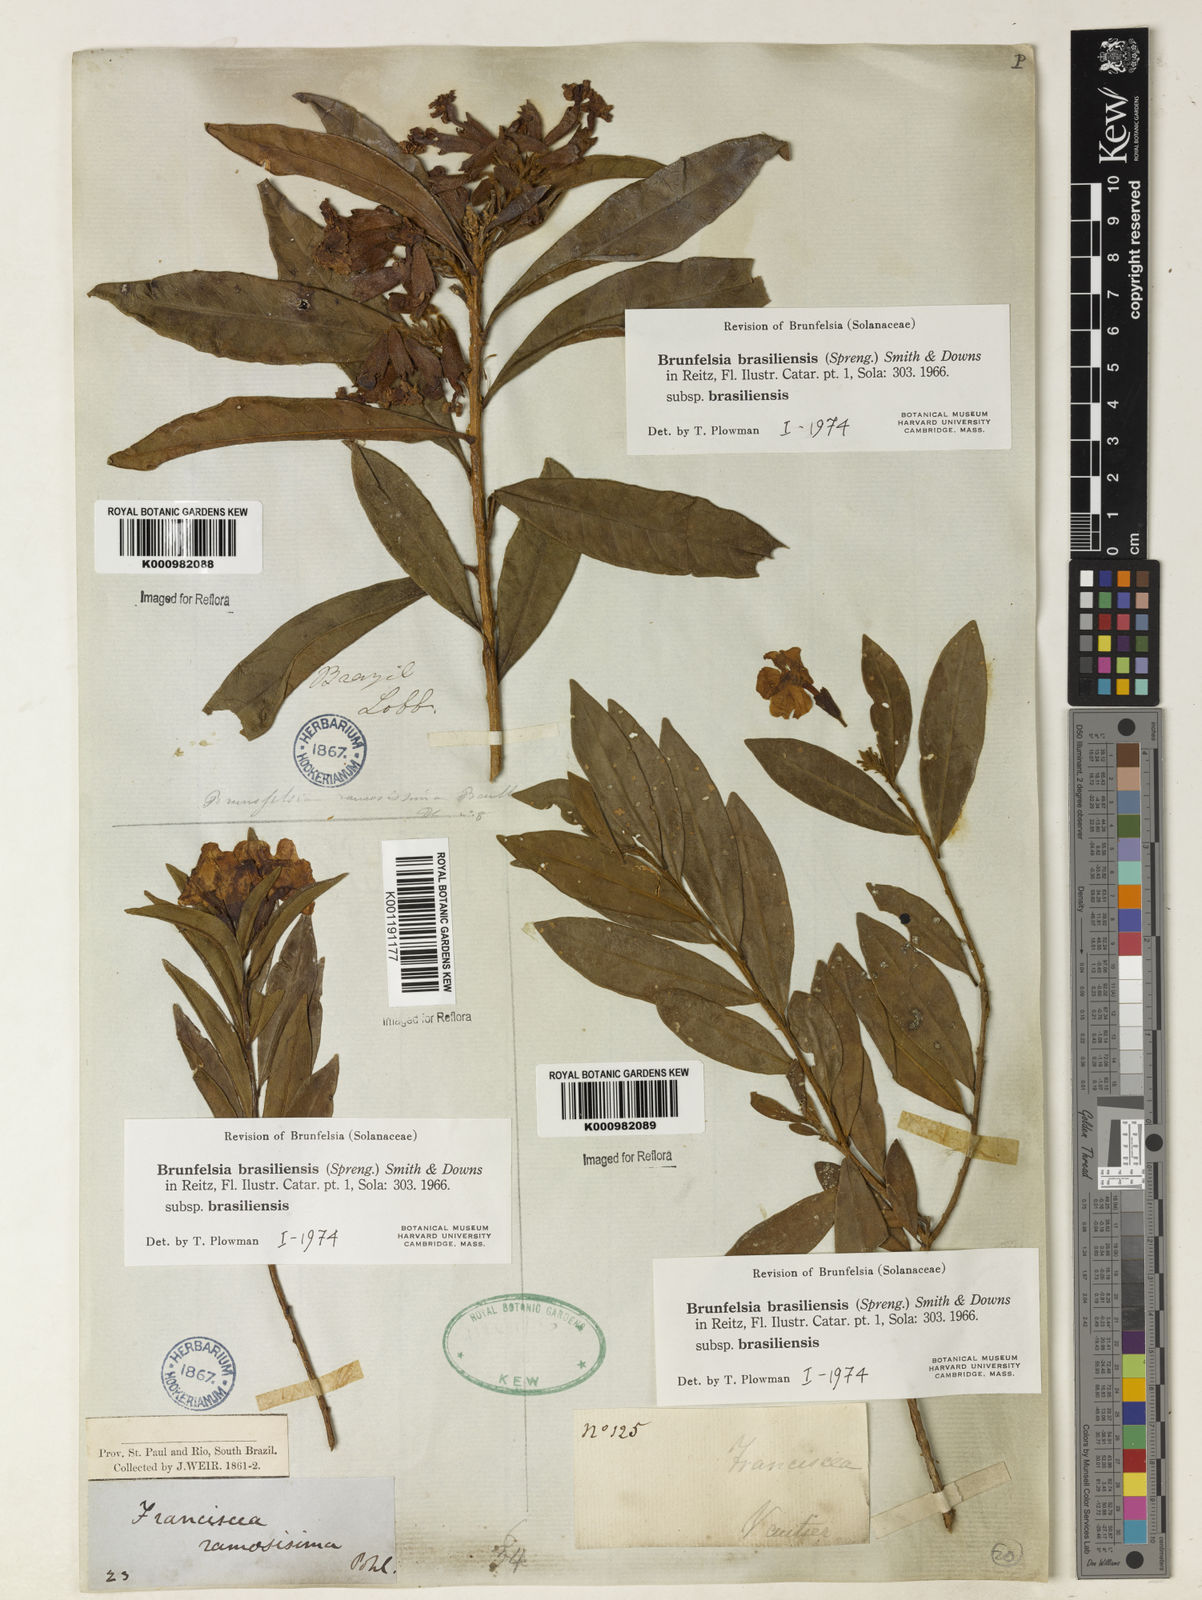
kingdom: Plantae
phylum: Tracheophyta
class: Magnoliopsida
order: Solanales
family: Solanaceae
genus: Brunfelsia
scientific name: Brunfelsia brasiliensis
